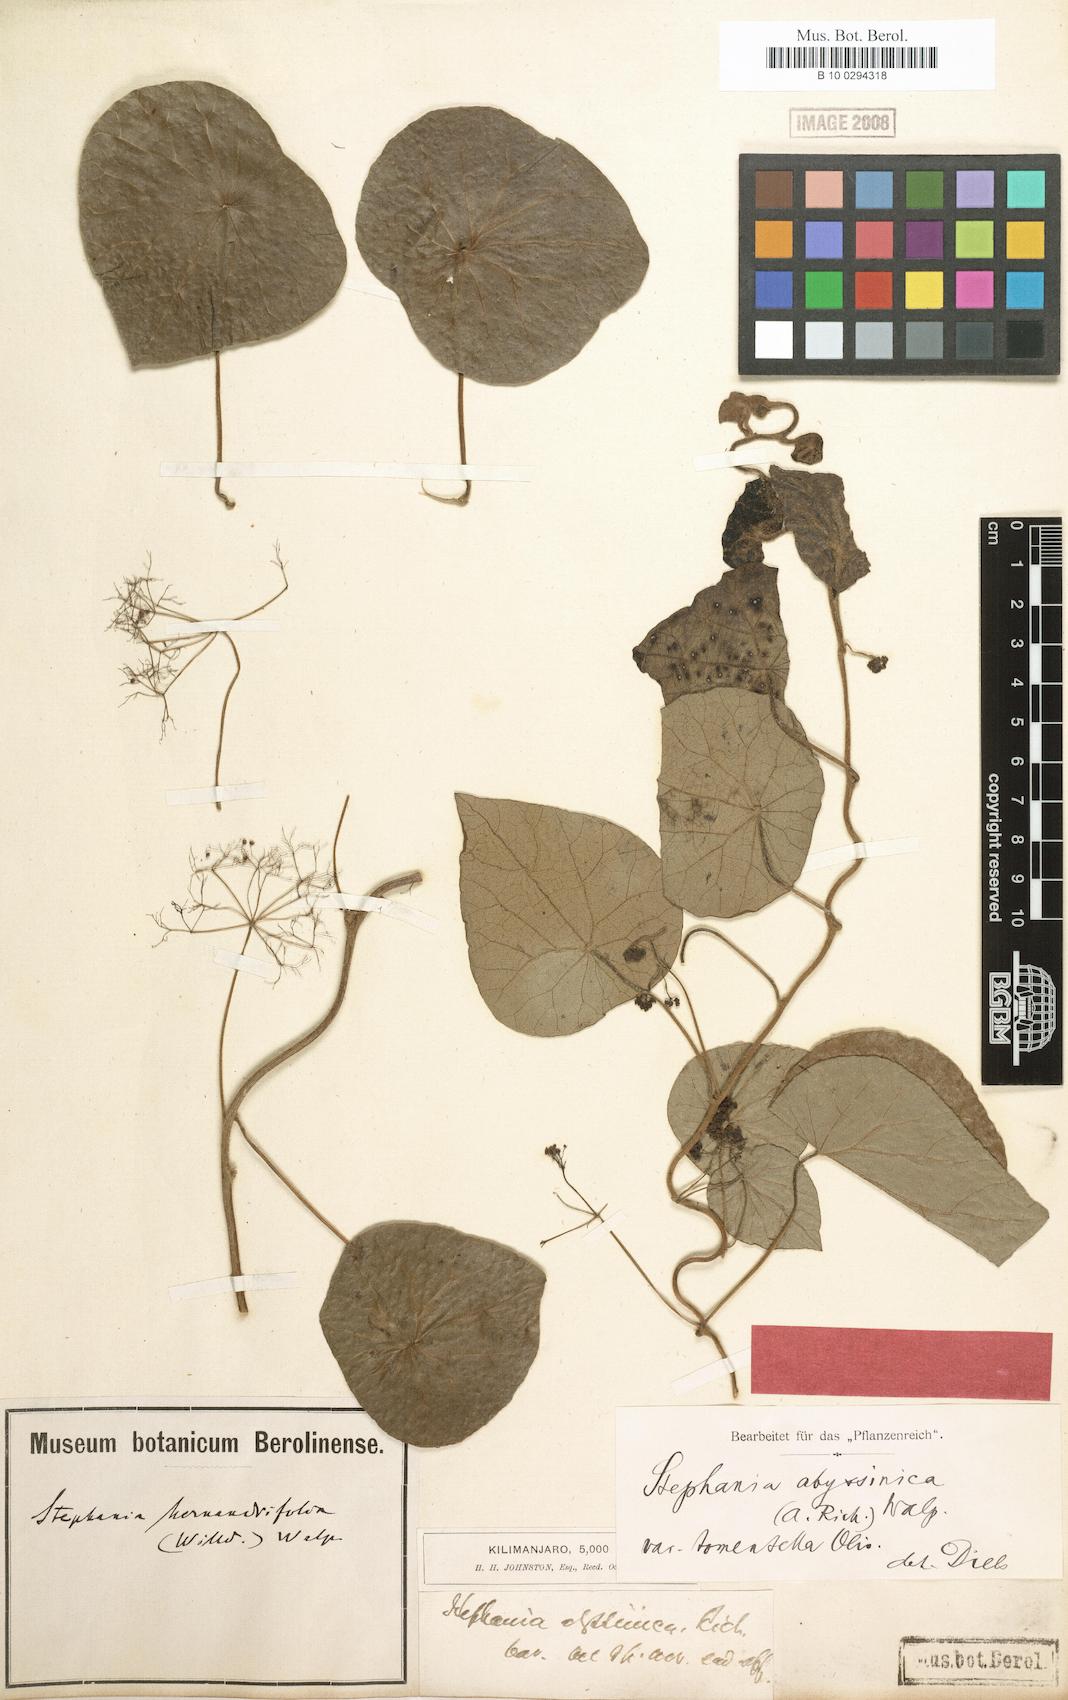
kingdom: Plantae
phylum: Tracheophyta
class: Magnoliopsida
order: Ranunculales
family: Menispermaceae
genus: Stephania
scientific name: Stephania abyssinica
